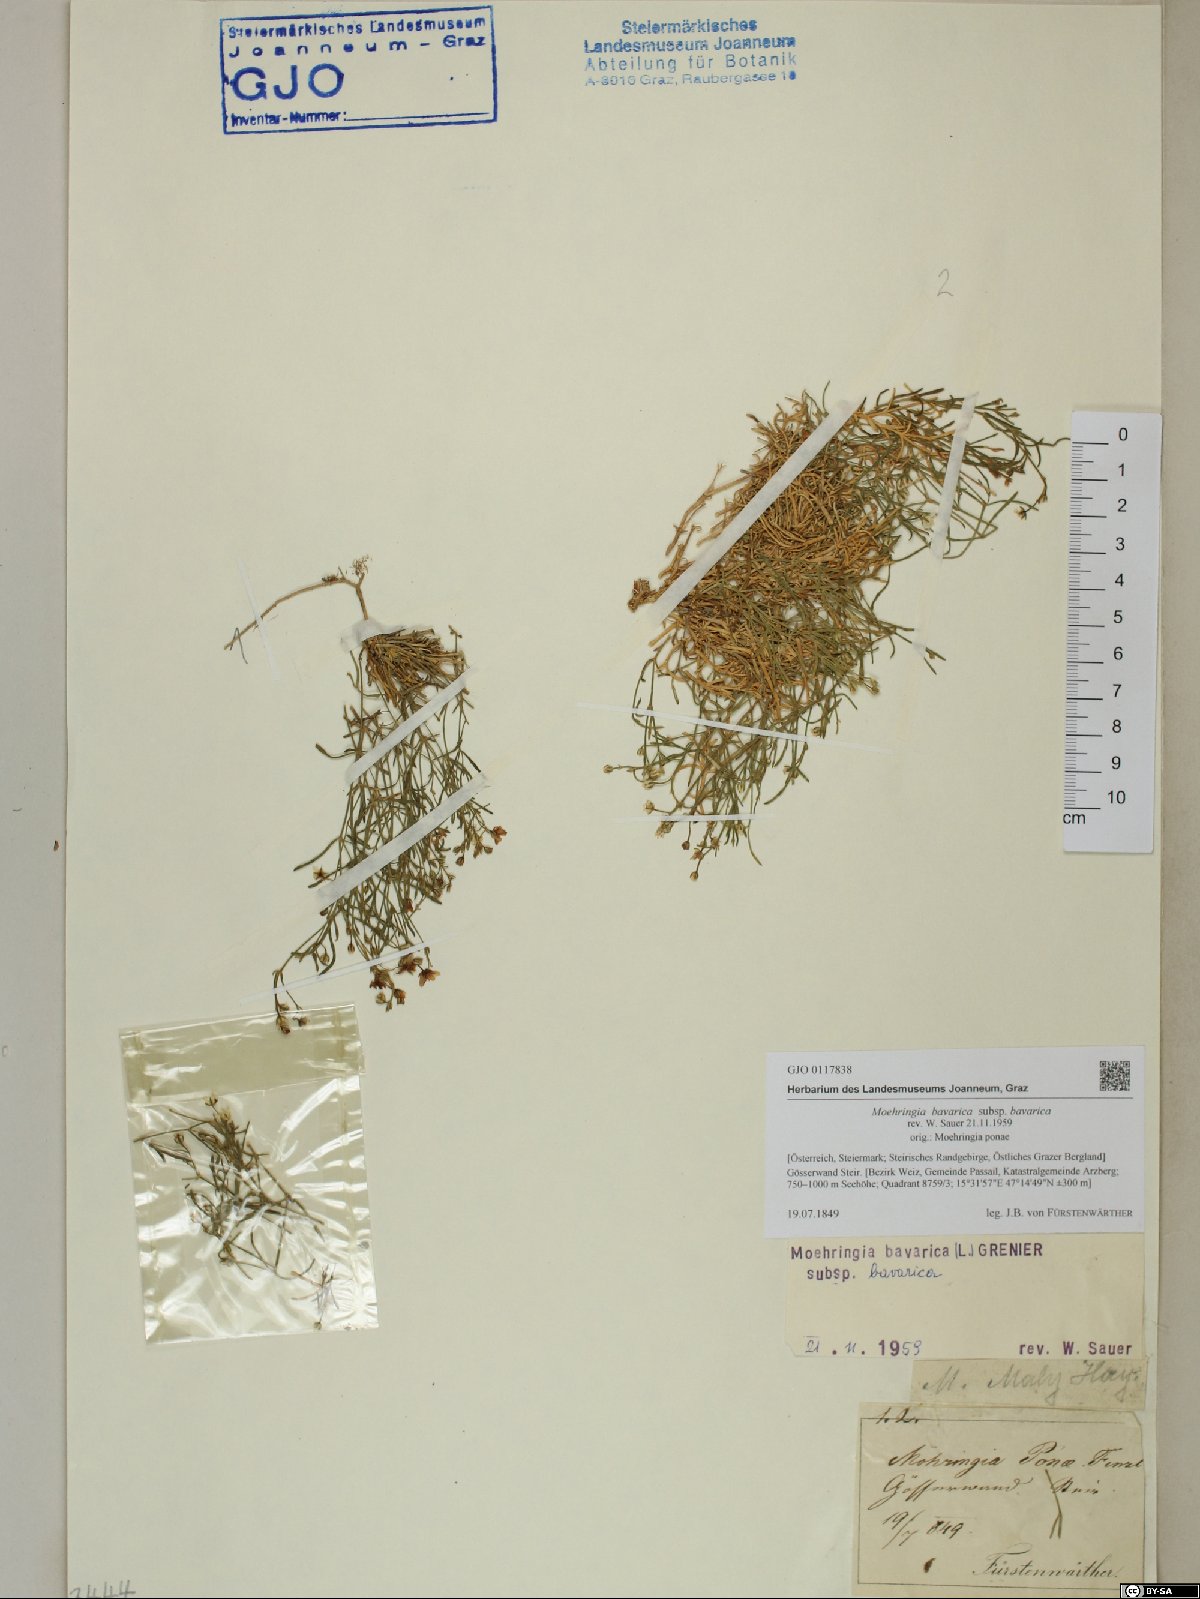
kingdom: Plantae
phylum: Tracheophyta
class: Magnoliopsida
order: Caryophyllales
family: Caryophyllaceae
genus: Moehringia
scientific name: Moehringia bavarica
